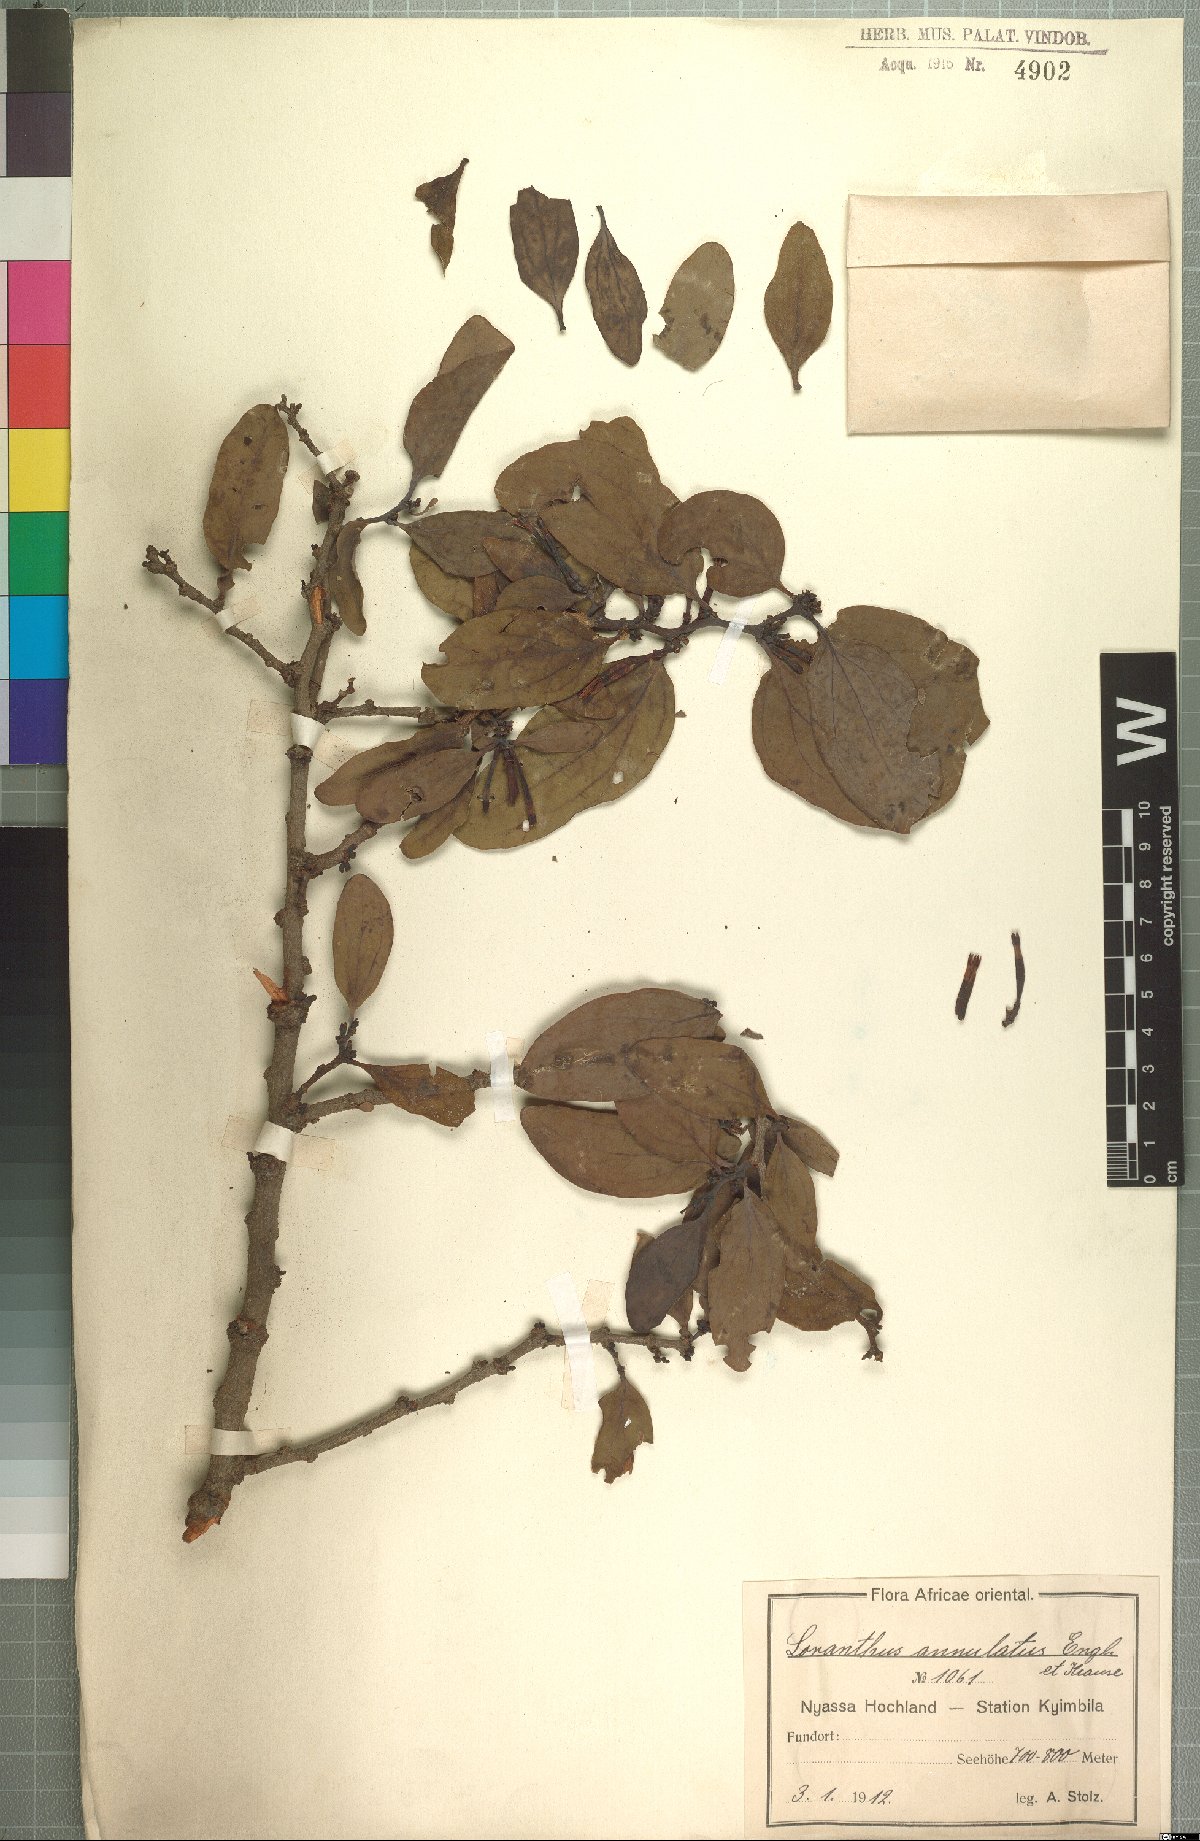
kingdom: Plantae
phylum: Tracheophyta
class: Magnoliopsida
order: Santalales
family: Loranthaceae
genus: Agelanthus
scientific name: Agelanthus fuellebornii
